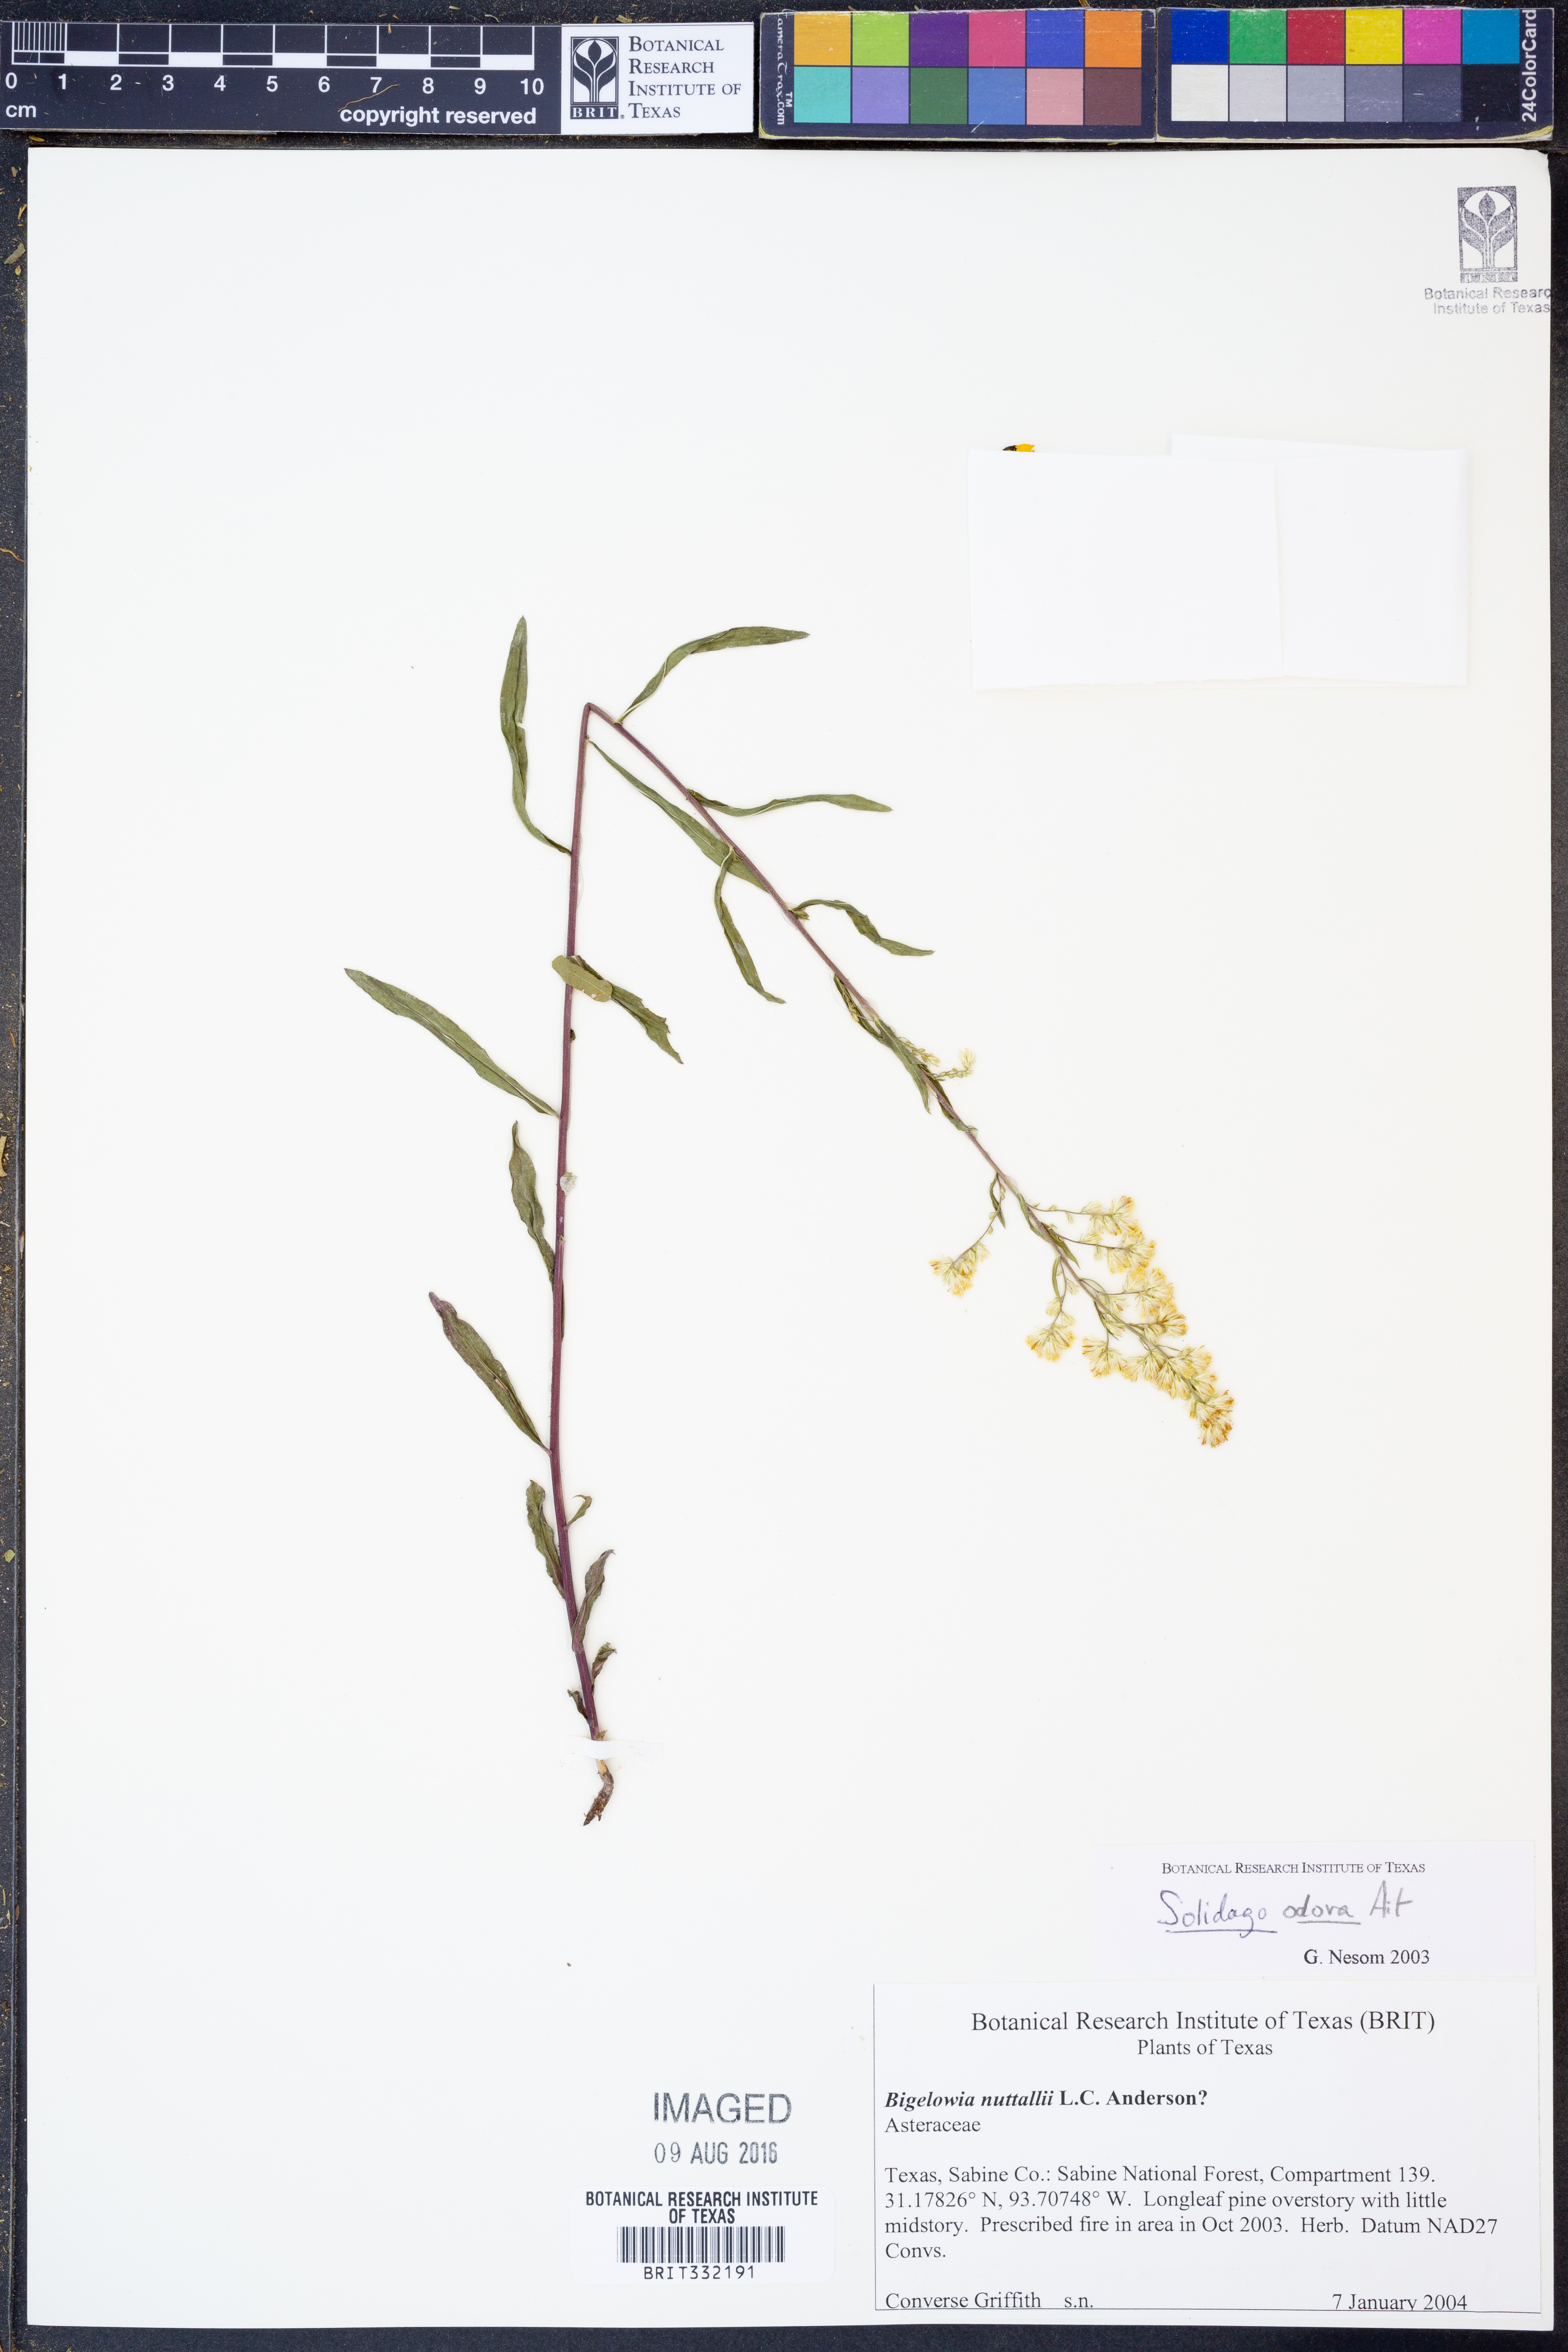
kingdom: Plantae
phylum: Tracheophyta
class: Magnoliopsida
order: Asterales
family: Asteraceae
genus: Solidago
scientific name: Solidago odora
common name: Anise-scented goldenrod
